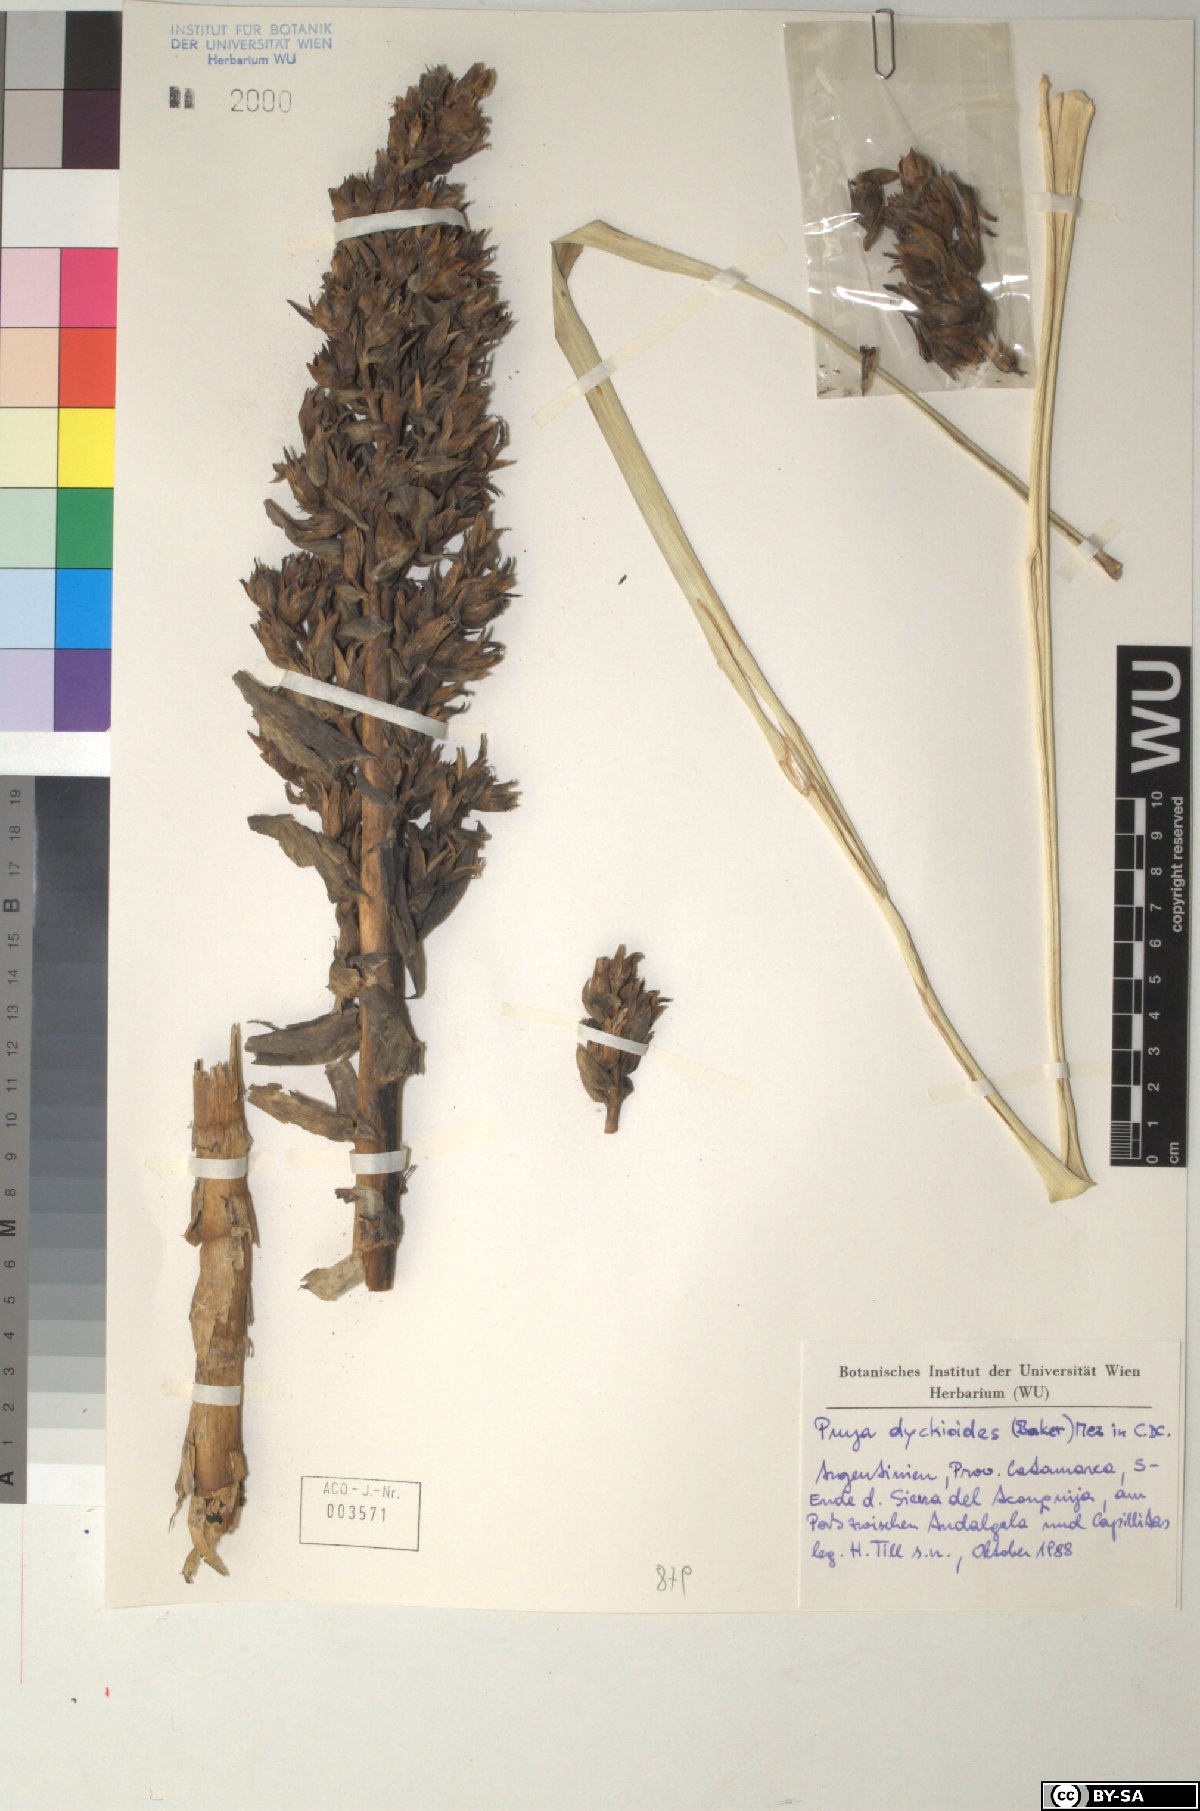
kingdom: Plantae
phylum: Tracheophyta
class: Liliopsida
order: Poales
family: Bromeliaceae
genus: Puya
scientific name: Puya dyckioides
